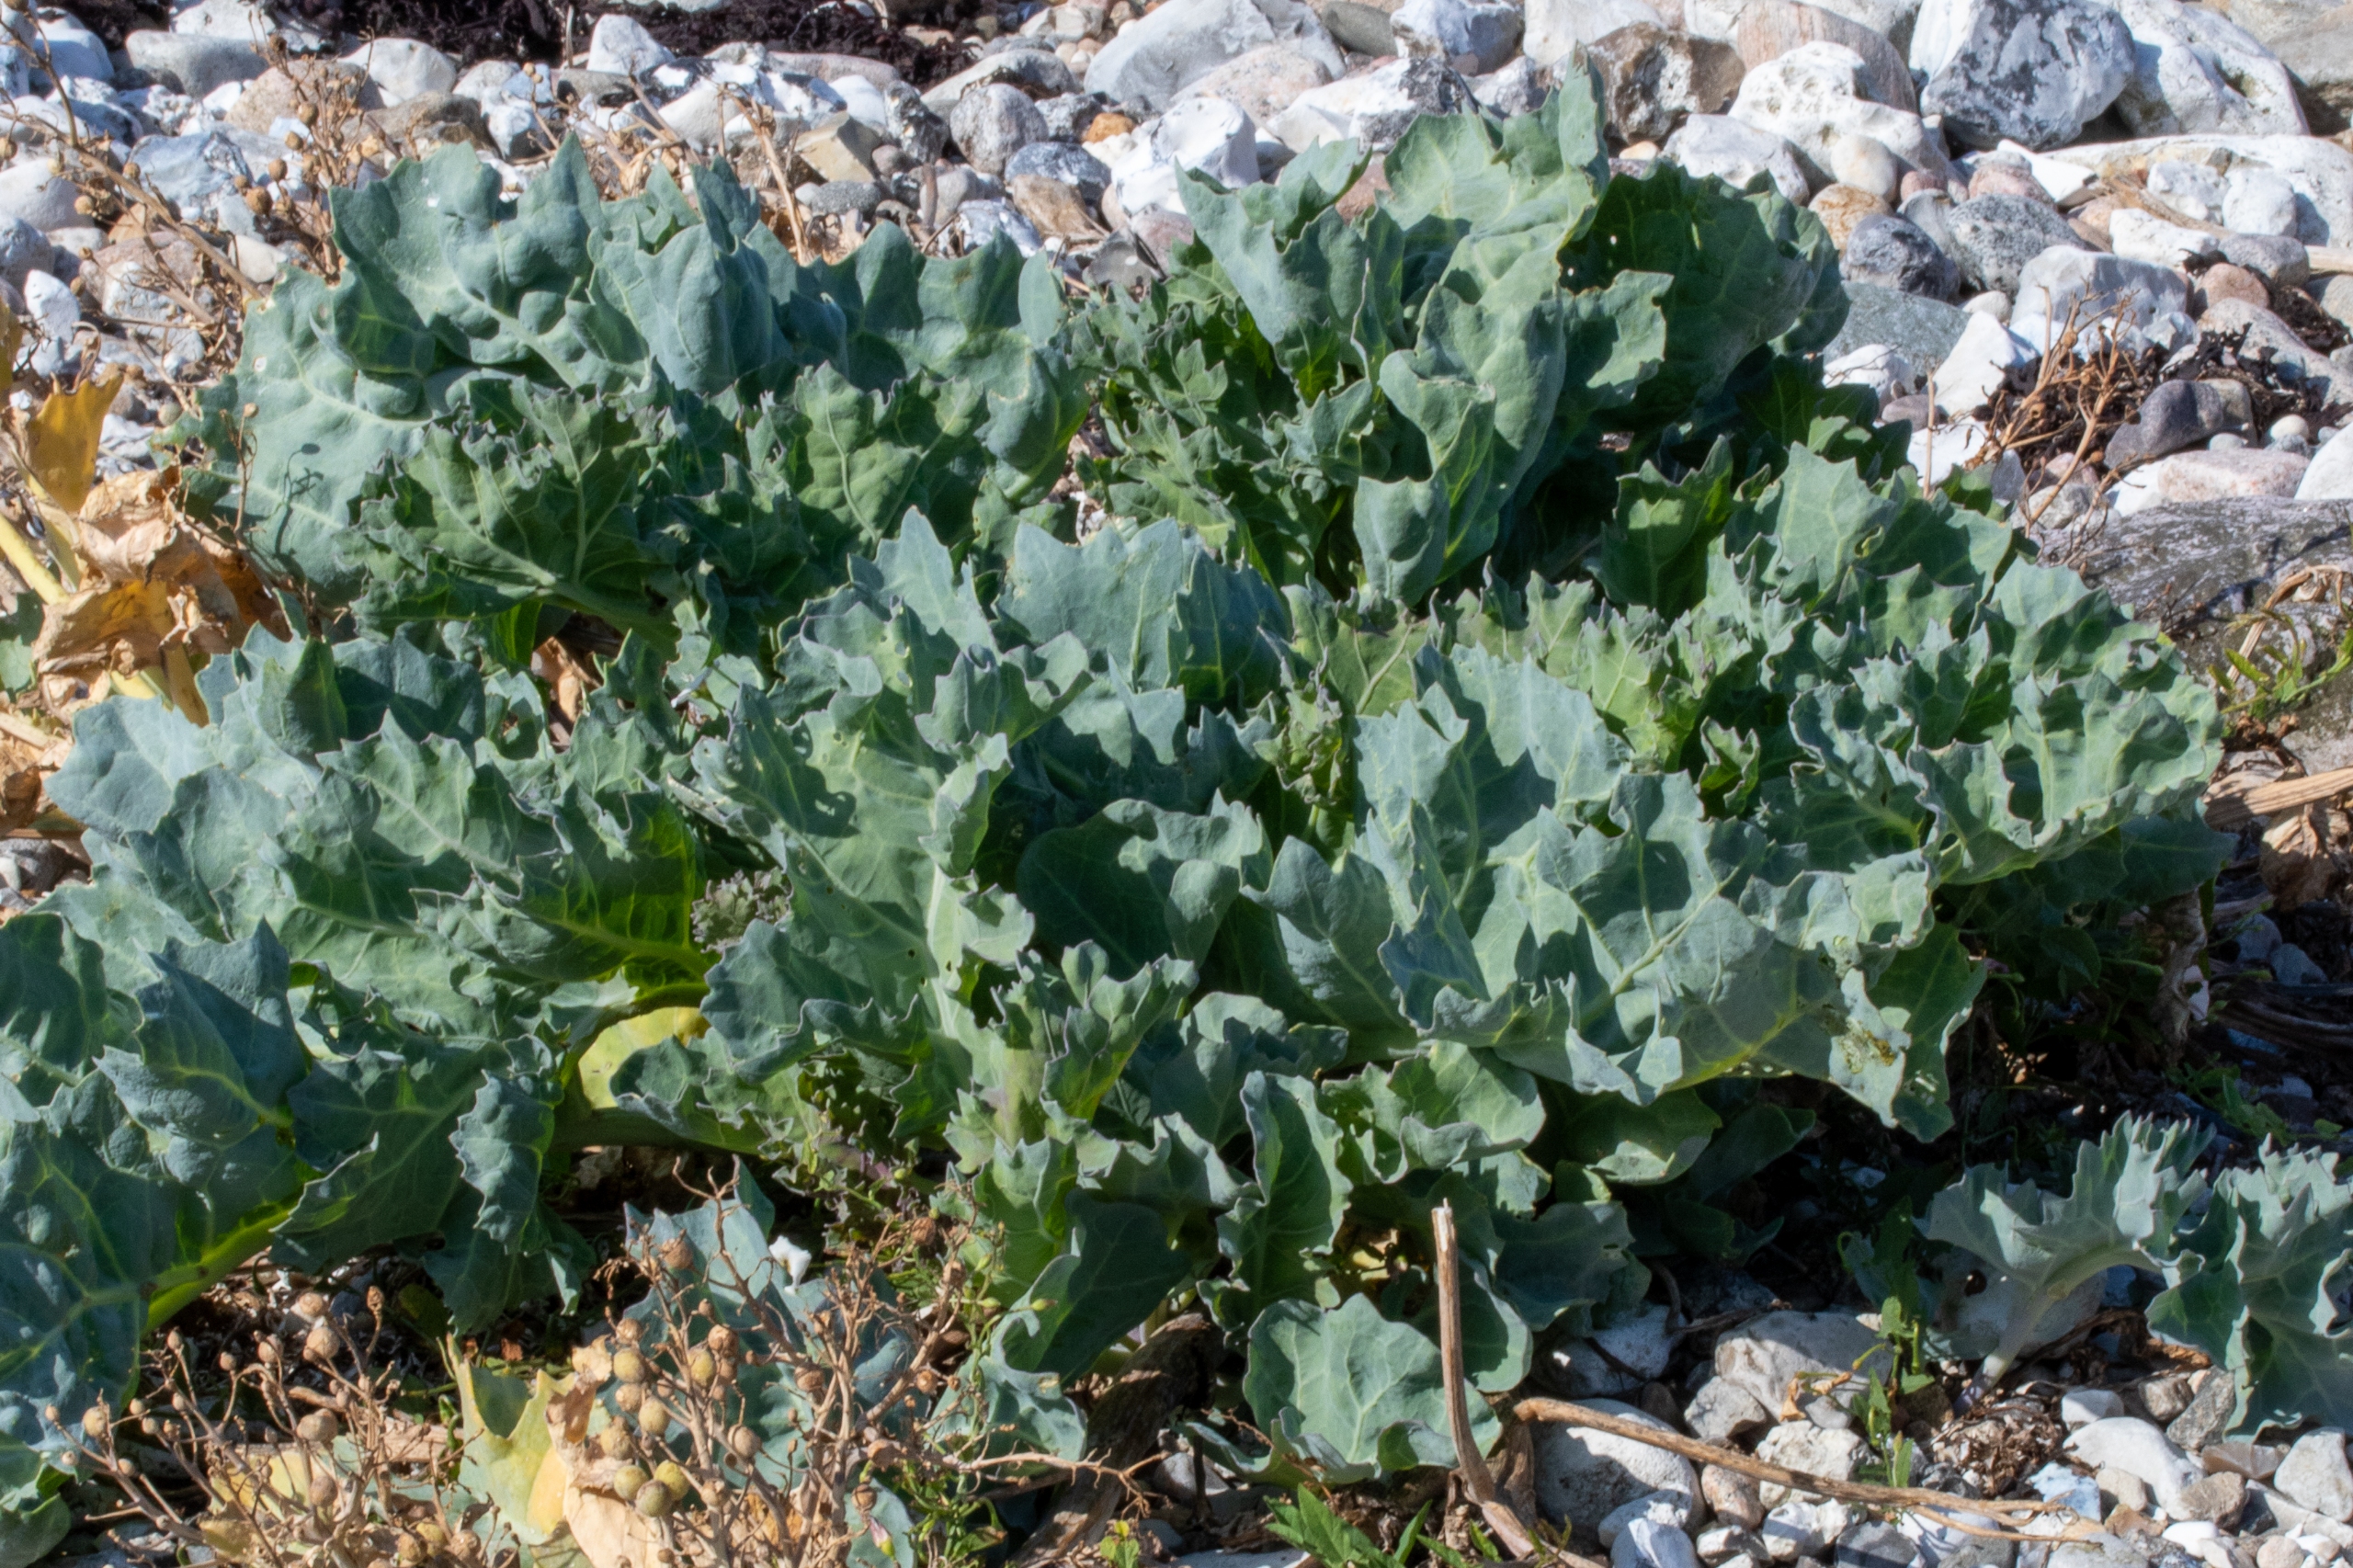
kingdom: Plantae
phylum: Tracheophyta
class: Magnoliopsida
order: Brassicales
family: Brassicaceae
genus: Crambe
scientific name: Crambe maritima
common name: Strandkål
